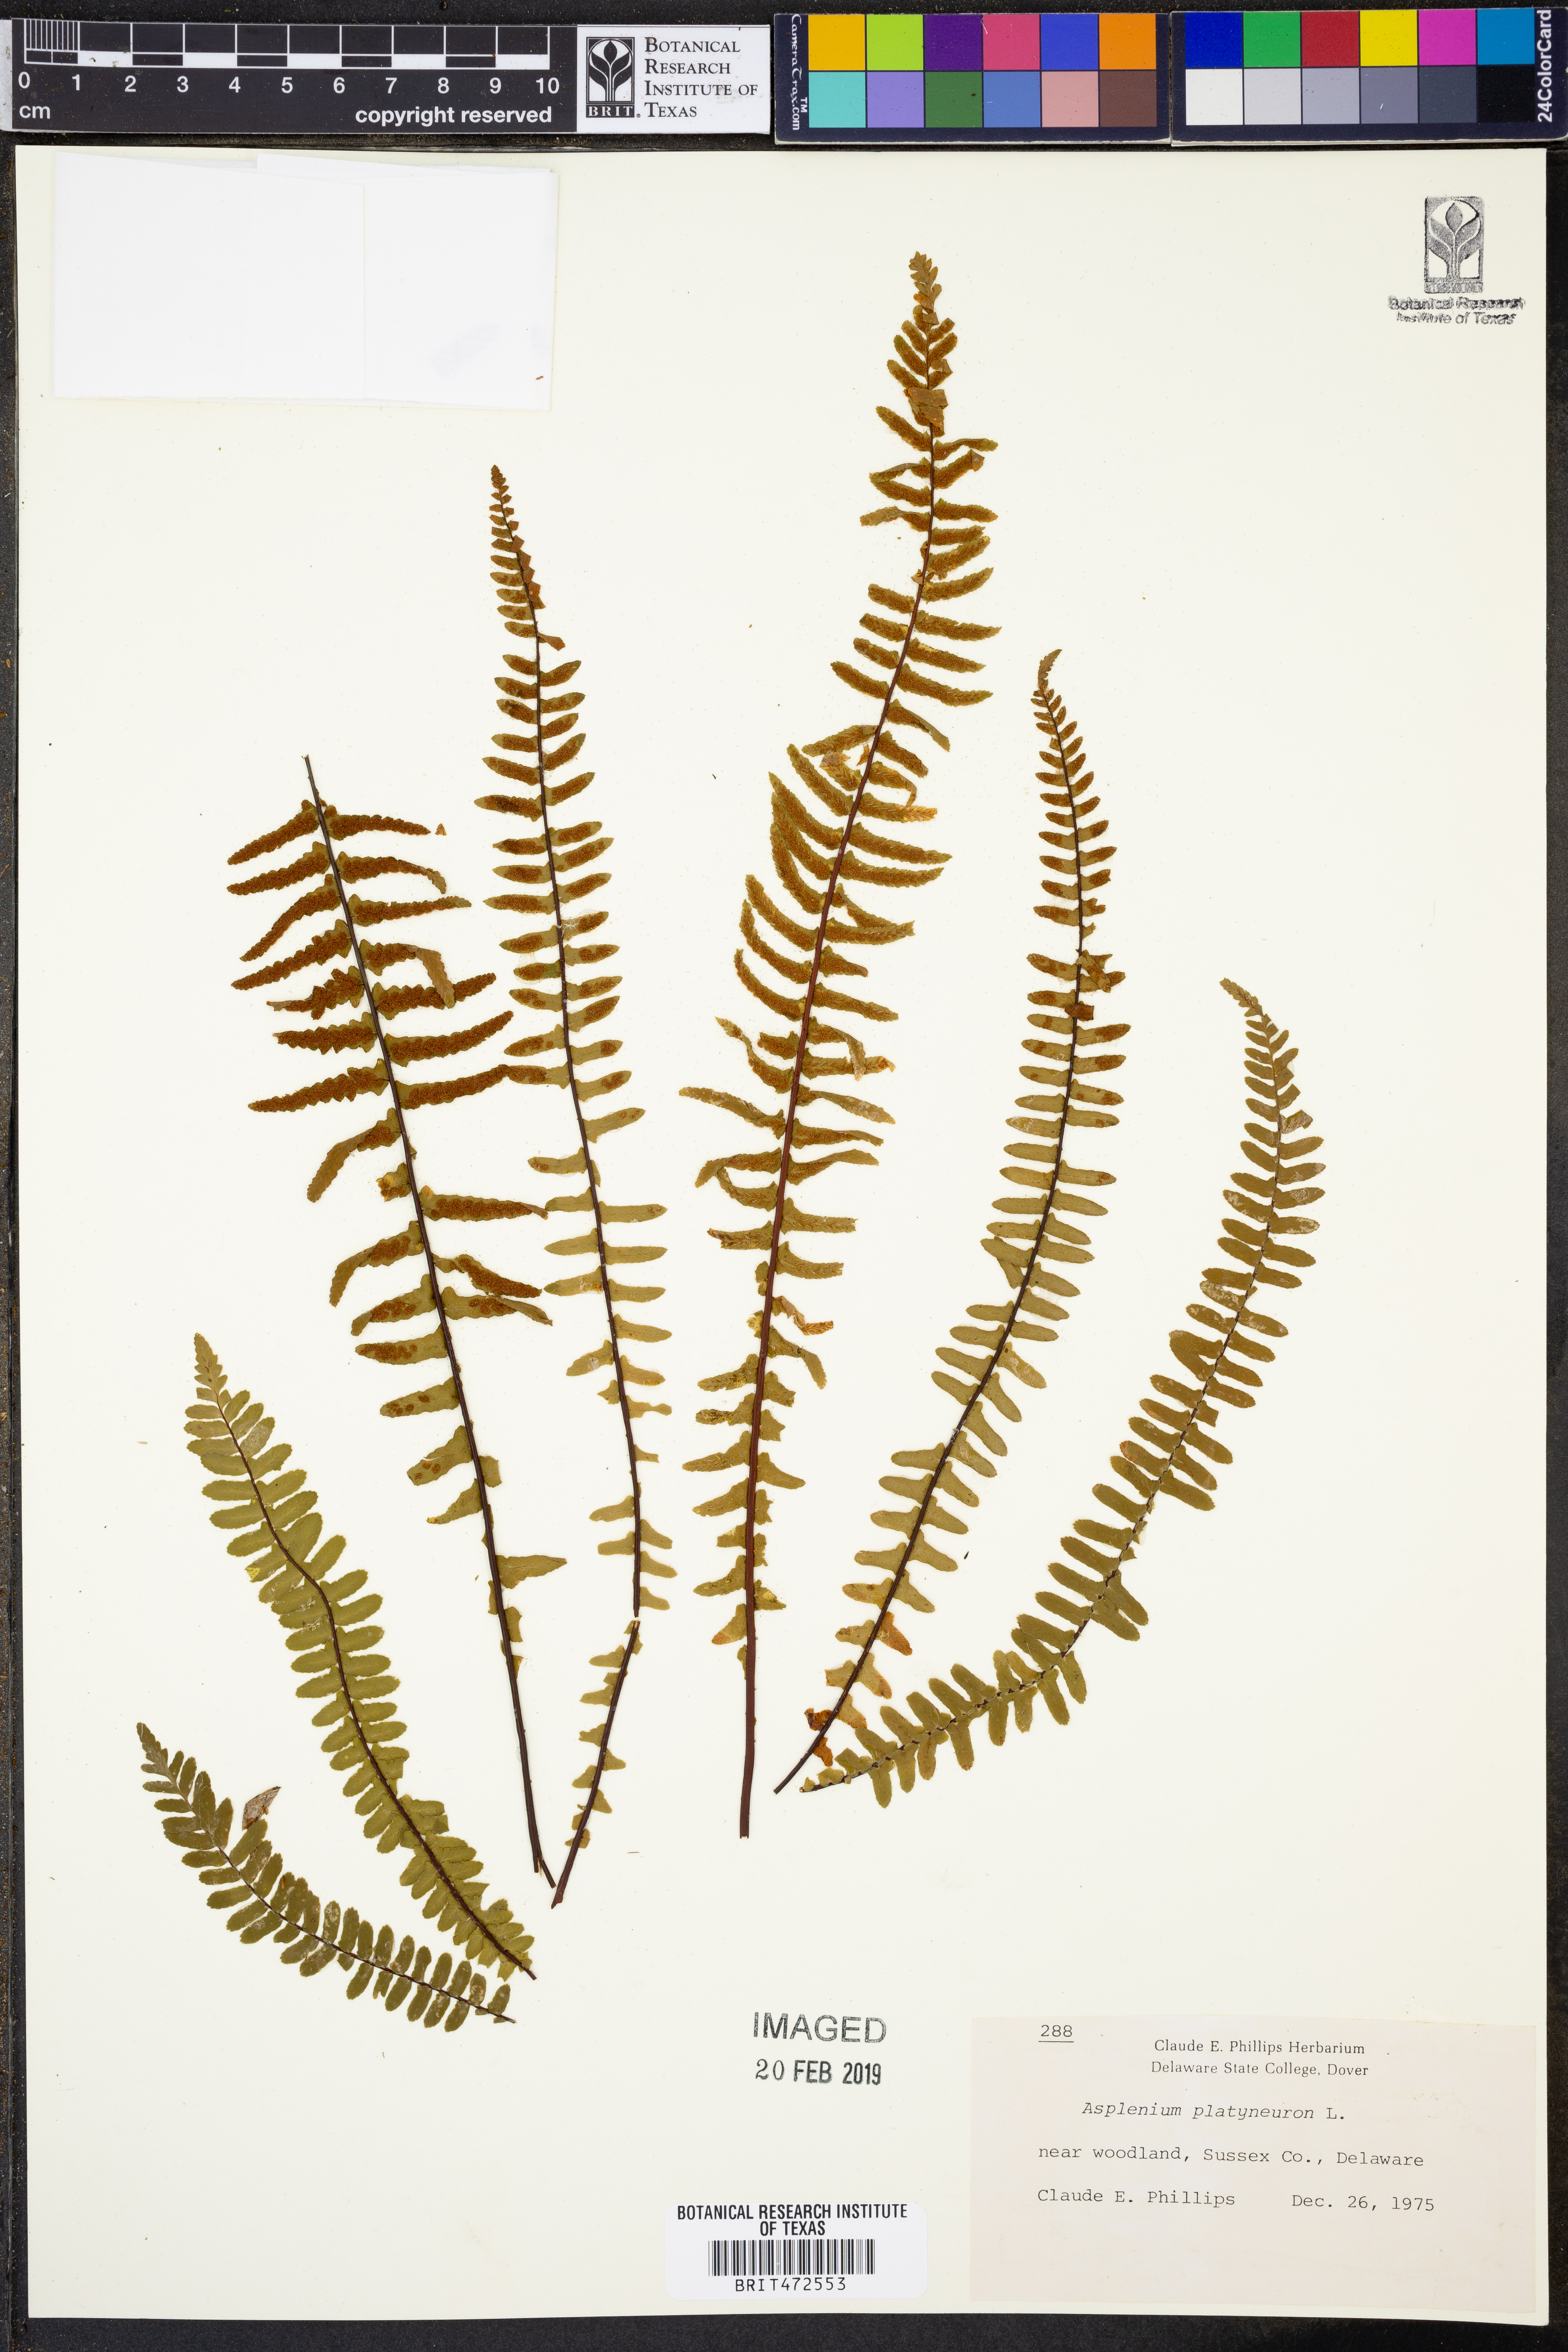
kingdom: Plantae
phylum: Tracheophyta
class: Polypodiopsida
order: Polypodiales
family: Aspleniaceae
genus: Asplenium
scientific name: Asplenium platyneuron
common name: Ebony spleenwort
